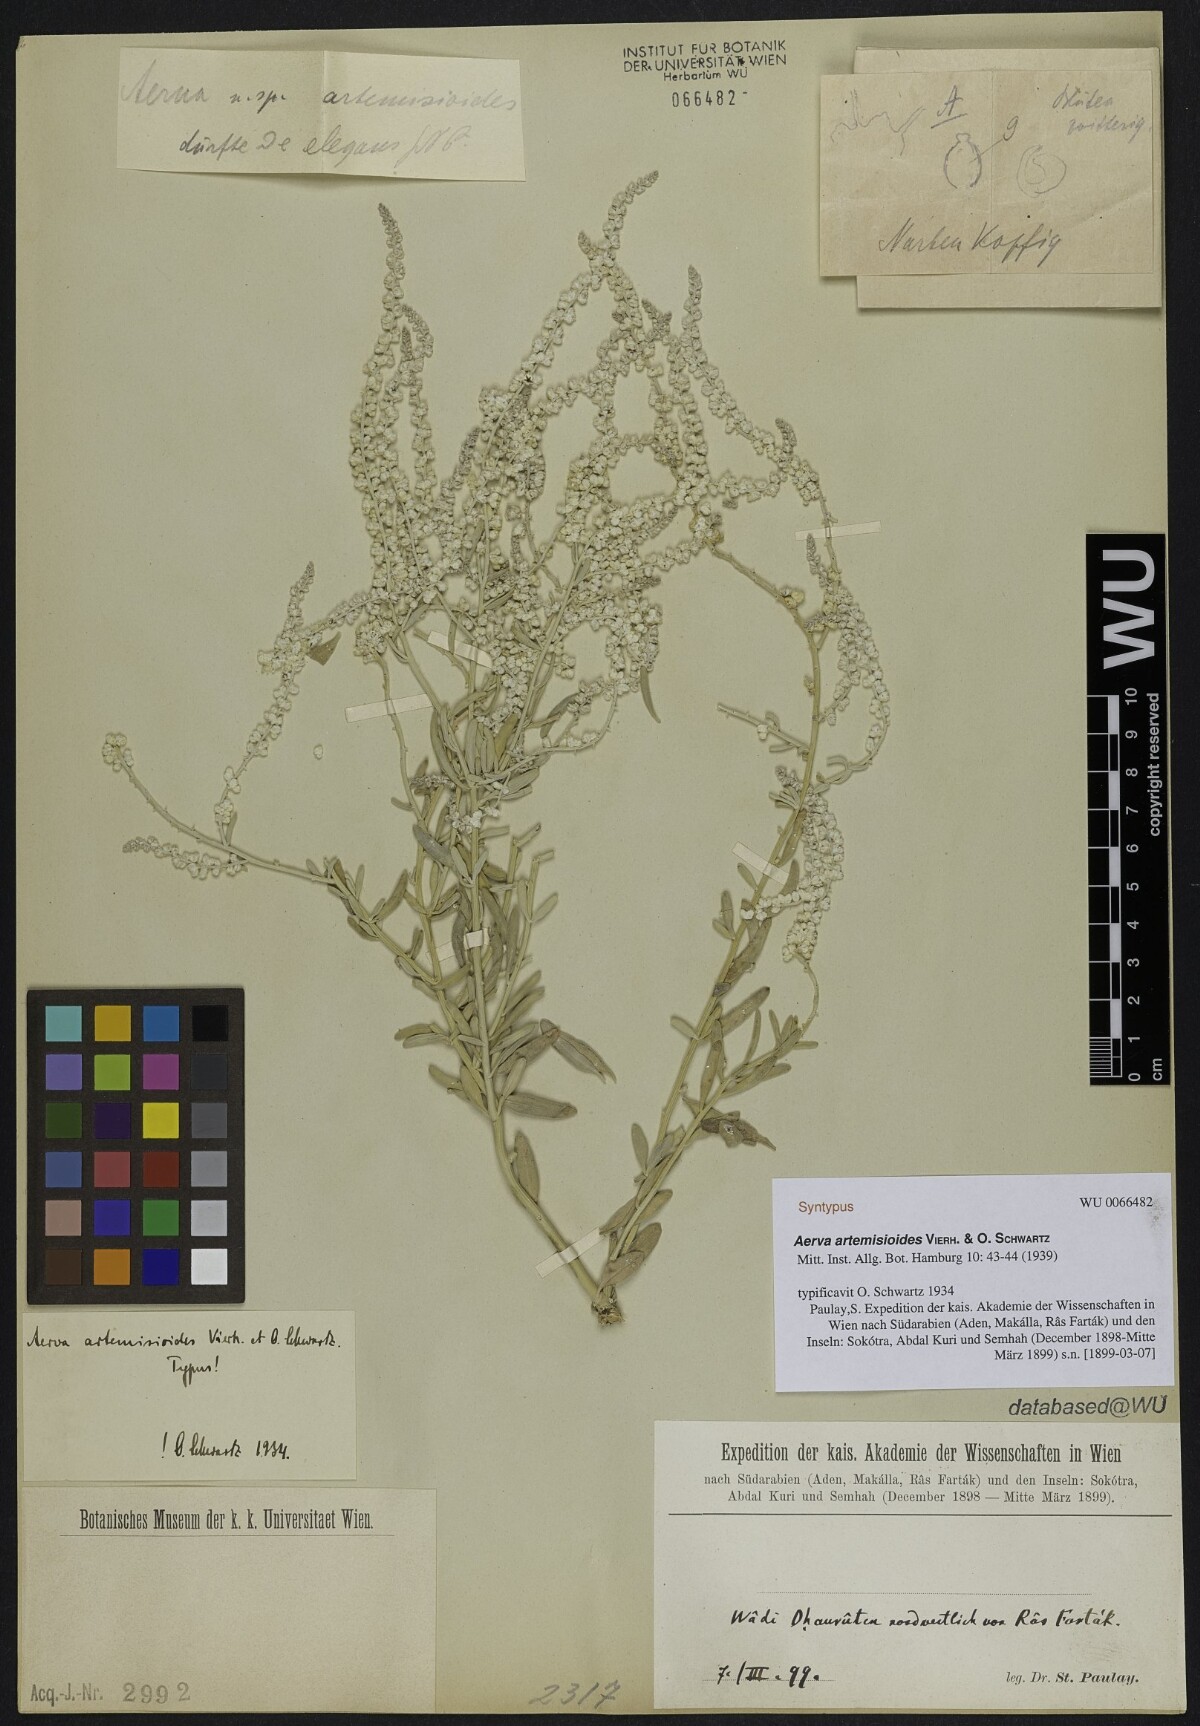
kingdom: Plantae
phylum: Tracheophyta
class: Magnoliopsida
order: Caryophyllales
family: Amaranthaceae
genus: Wadithamnus
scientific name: Wadithamnus artemisioides
